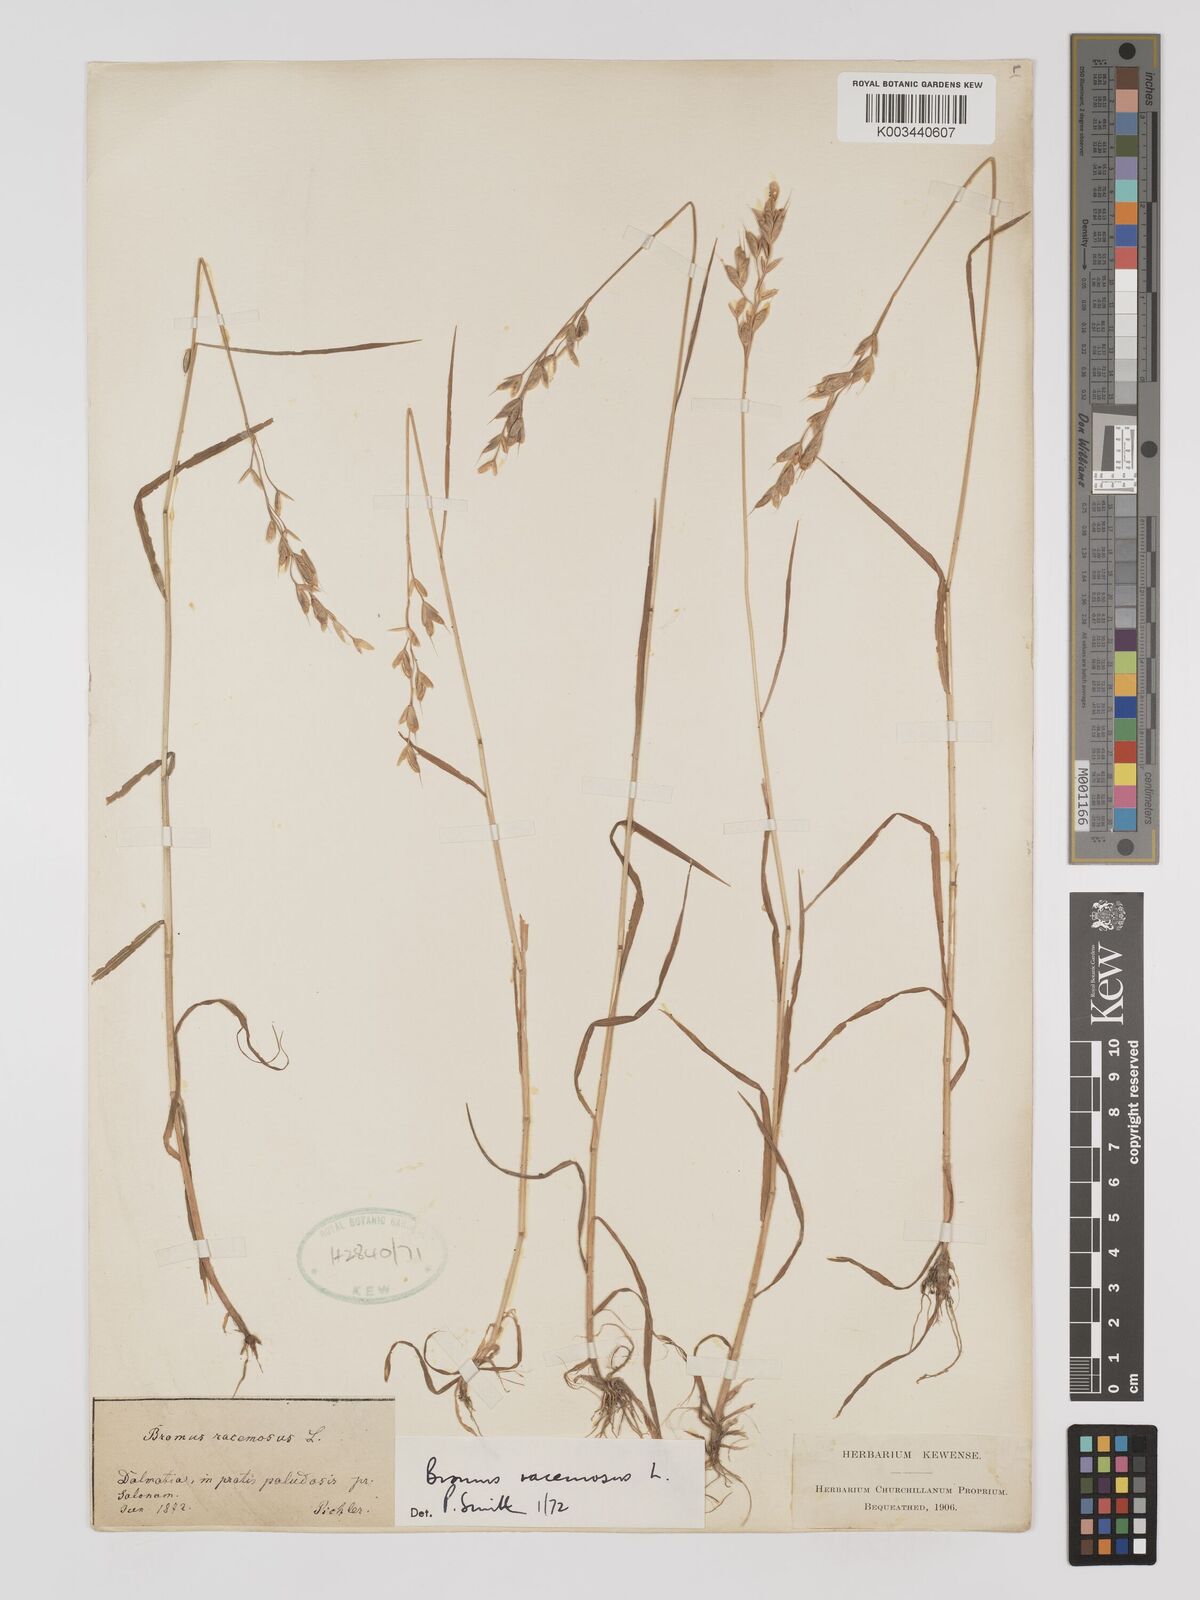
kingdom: Plantae
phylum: Tracheophyta
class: Liliopsida
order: Poales
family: Poaceae
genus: Bromus
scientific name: Bromus racemosus
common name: Bald brome
